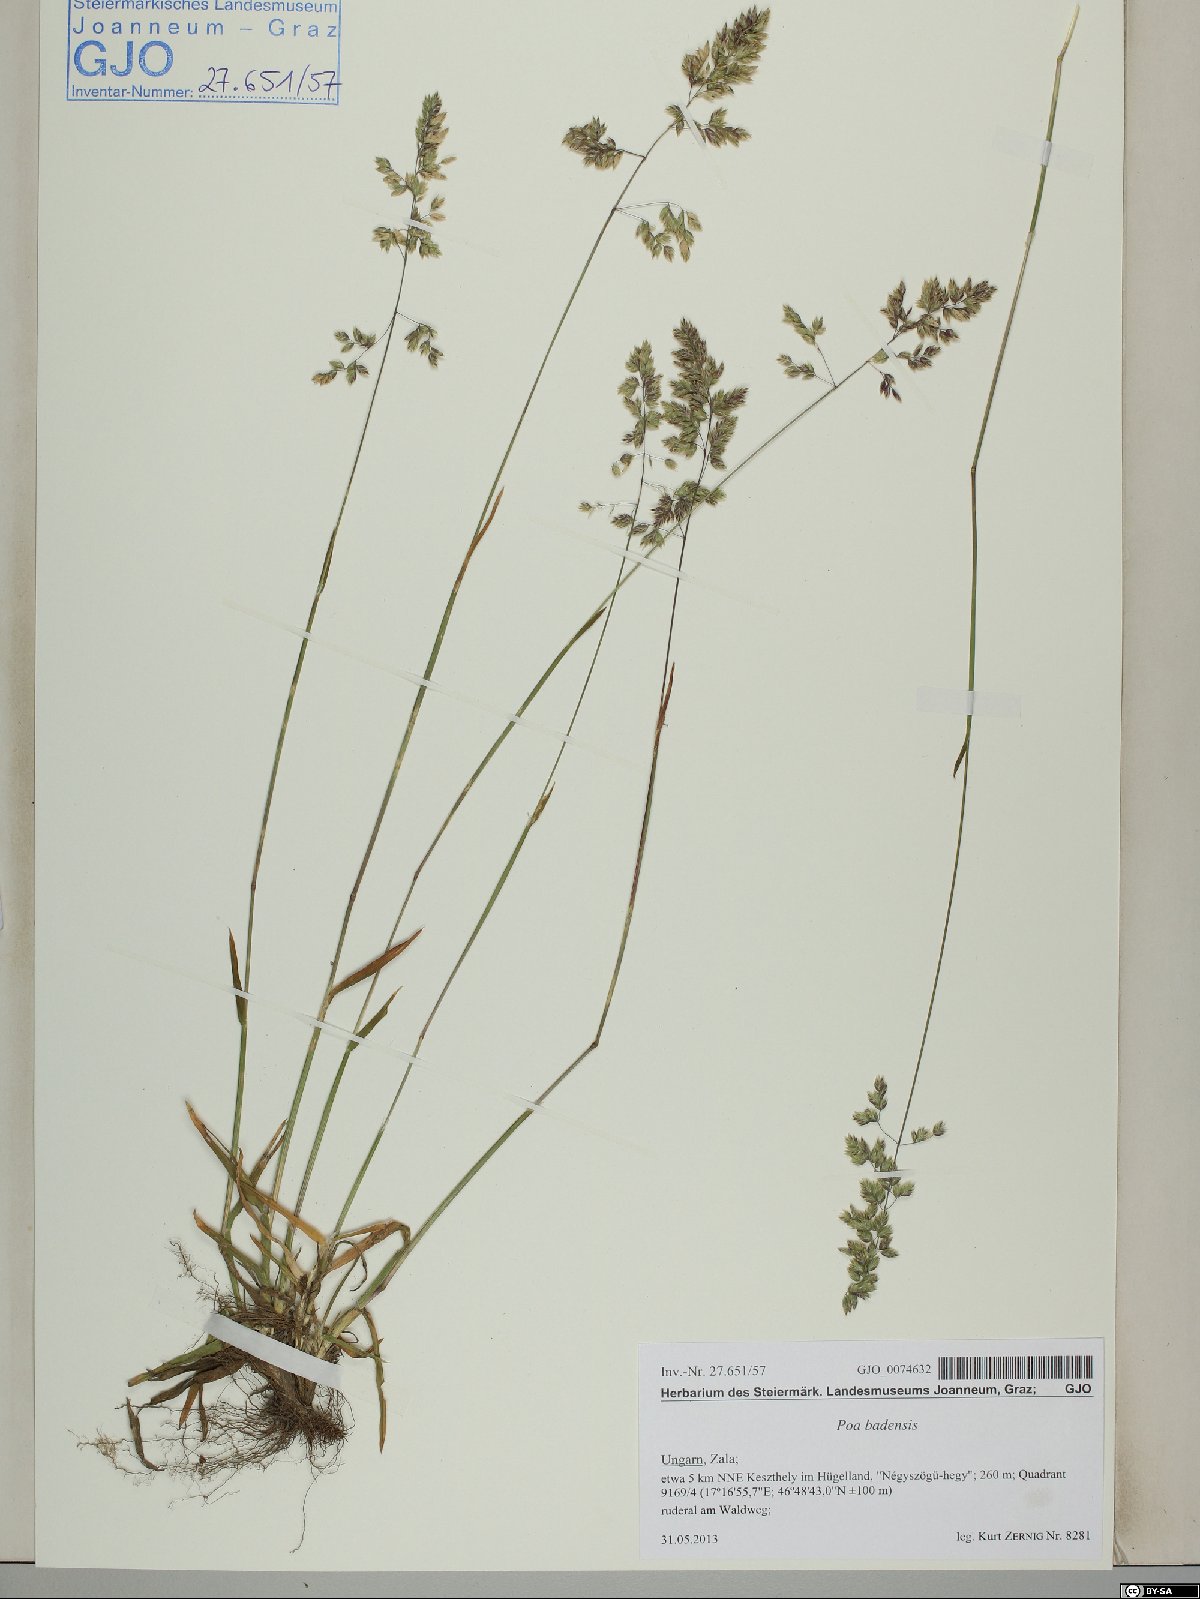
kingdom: Plantae
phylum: Tracheophyta
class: Liliopsida
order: Poales
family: Poaceae
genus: Poa
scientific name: Poa badensis
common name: Baden's bluegrass
